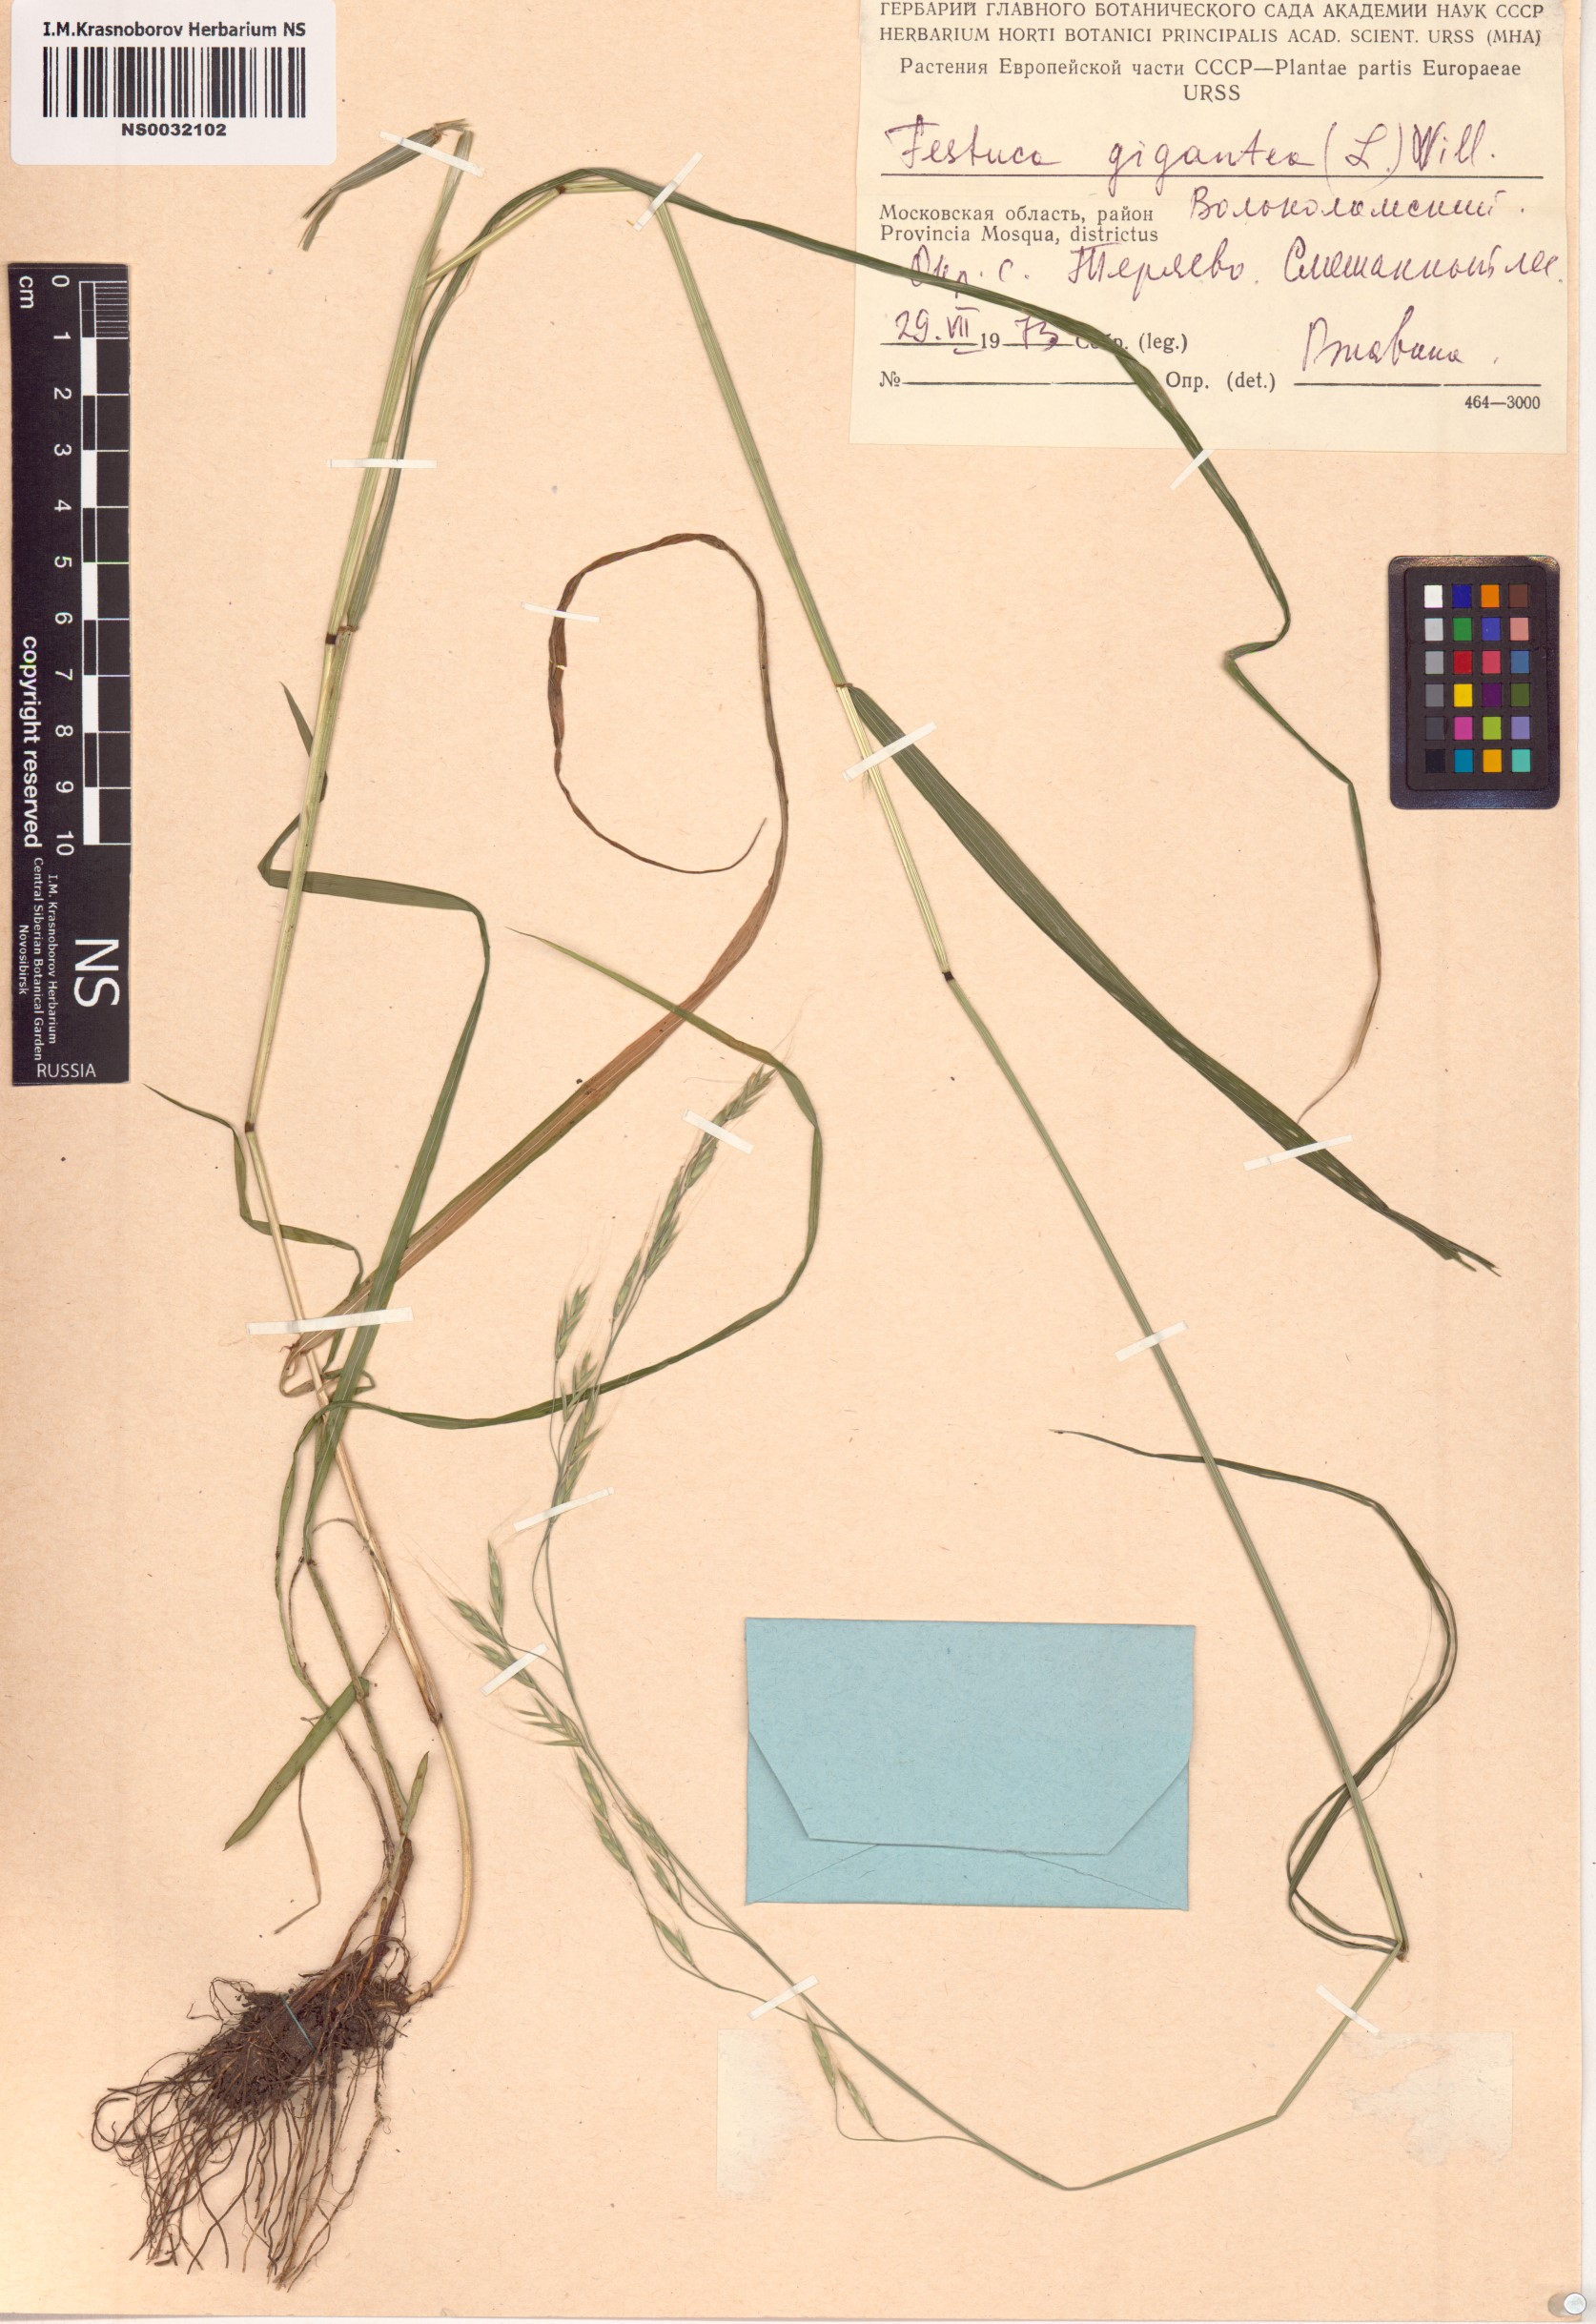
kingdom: Plantae
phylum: Tracheophyta
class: Liliopsida
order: Poales
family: Poaceae
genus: Lolium
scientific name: Lolium giganteum
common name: Giant fescue
